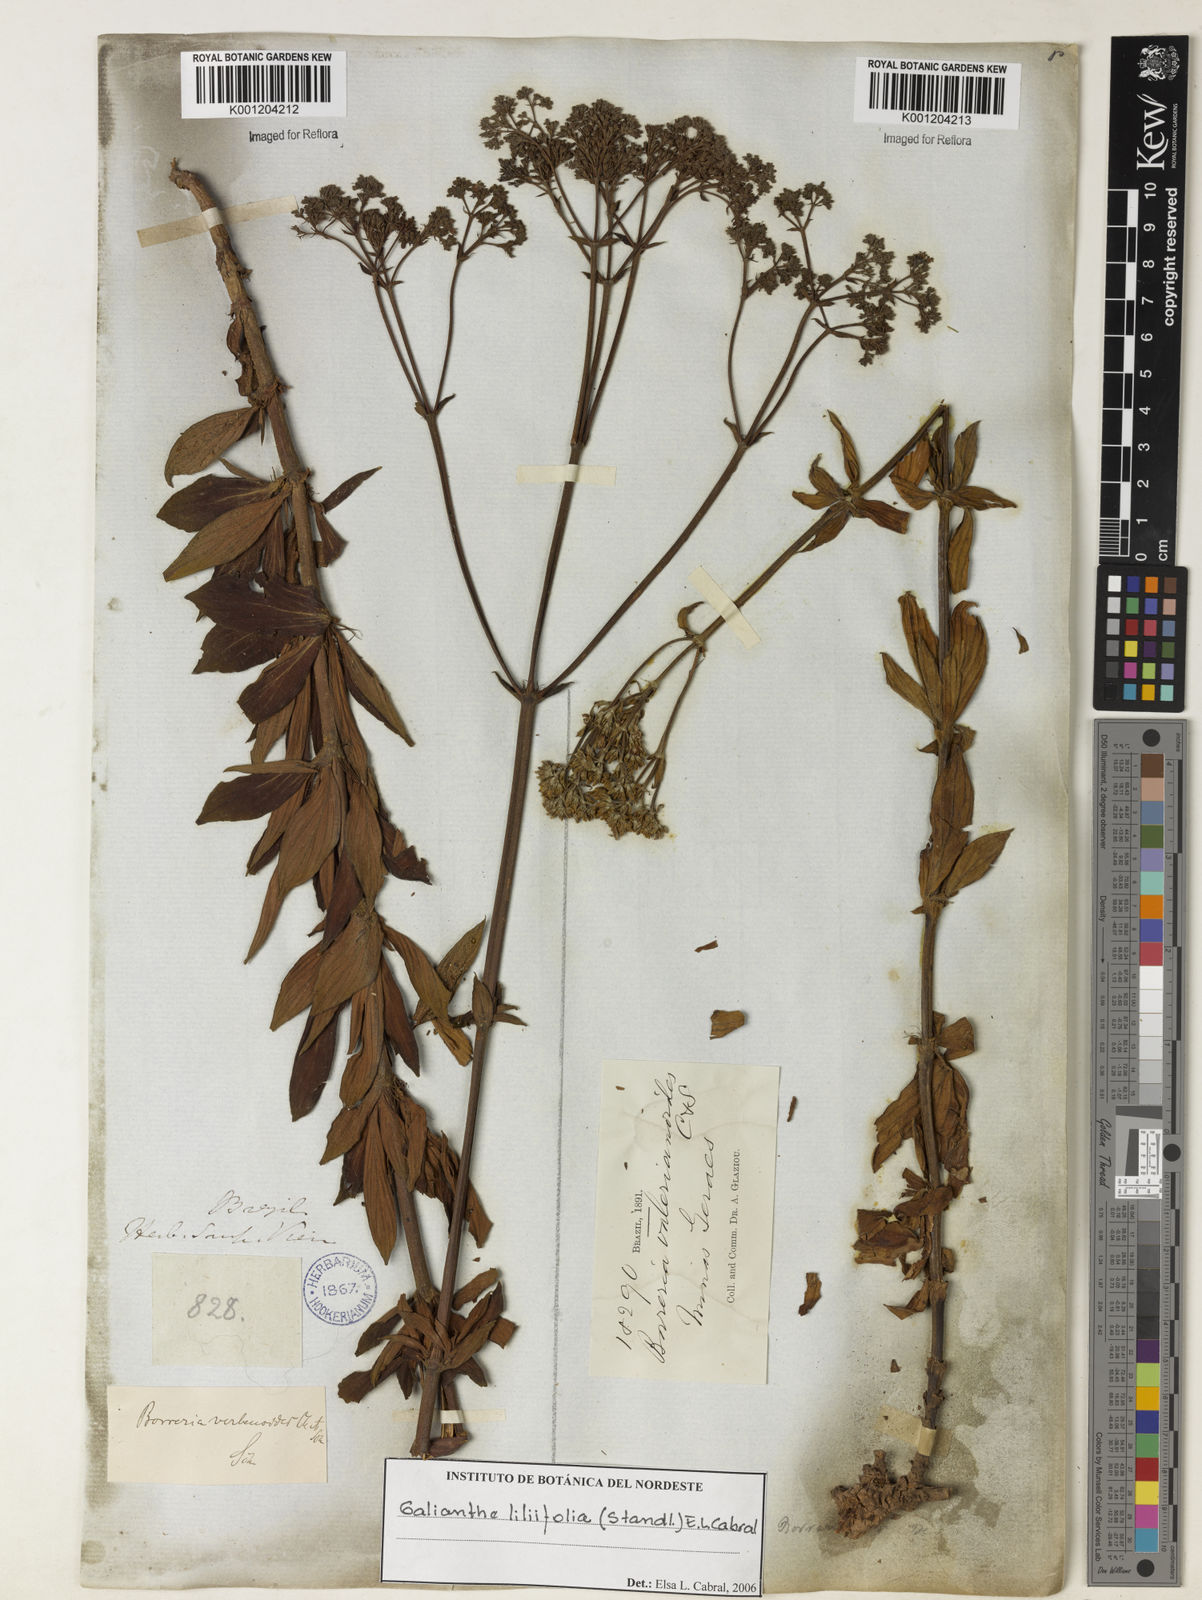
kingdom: Plantae
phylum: Tracheophyta
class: Magnoliopsida
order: Gentianales
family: Rubiaceae
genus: Galianthe
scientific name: Galianthe liliifolia
